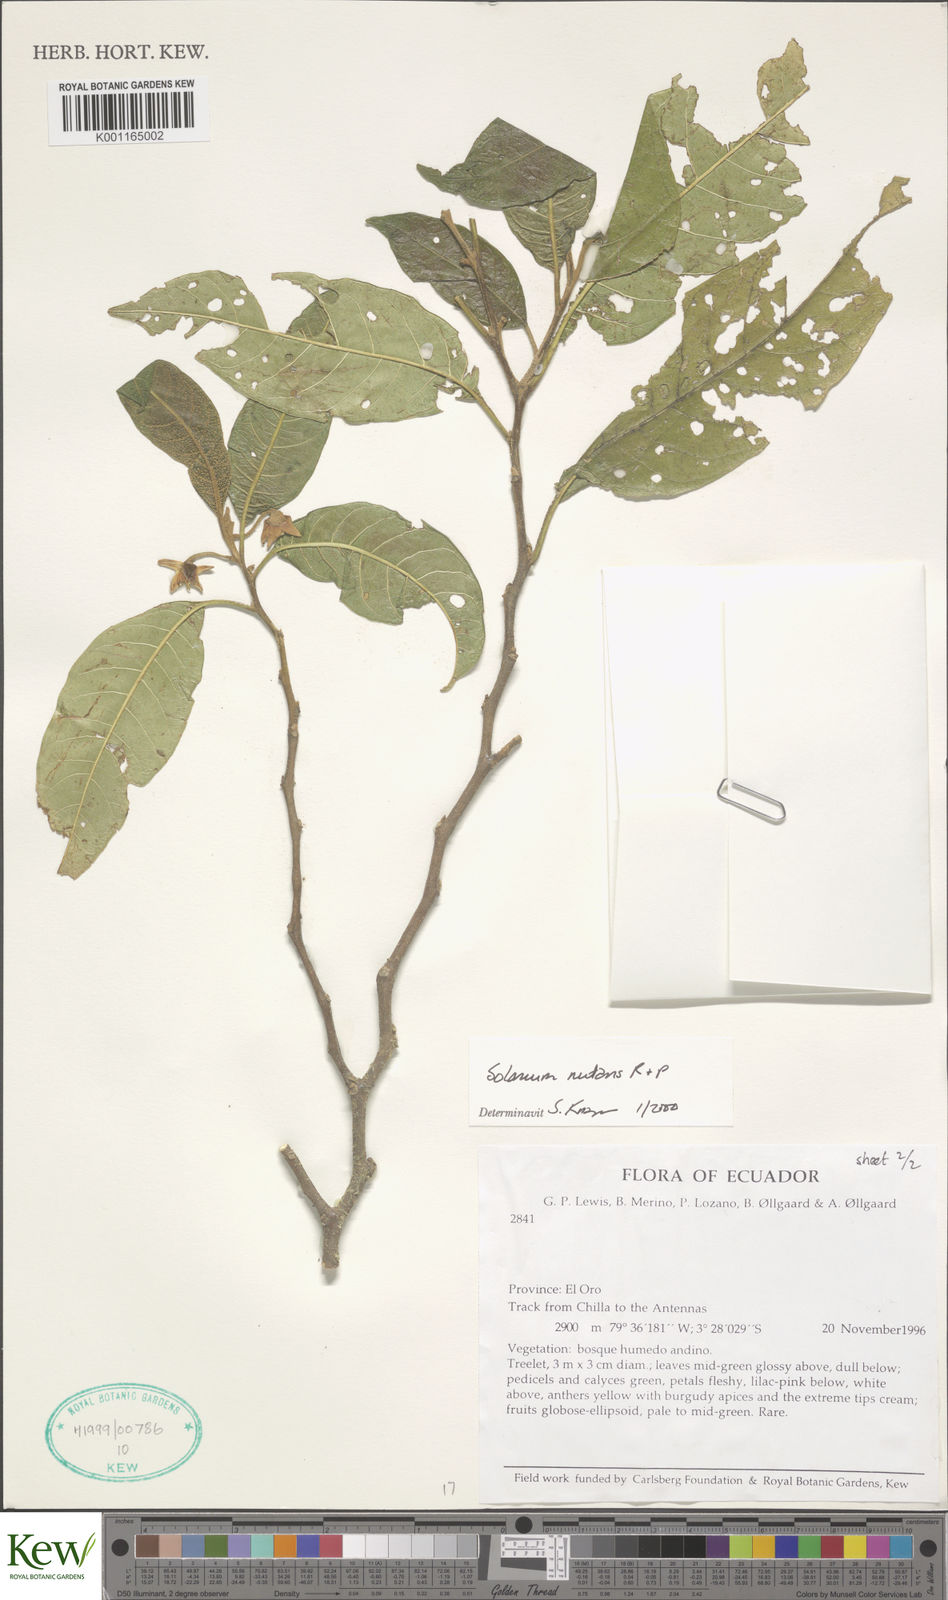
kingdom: Plantae
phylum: Tracheophyta
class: Magnoliopsida
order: Solanales
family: Solanaceae
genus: Solanum
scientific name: Solanum nutans
